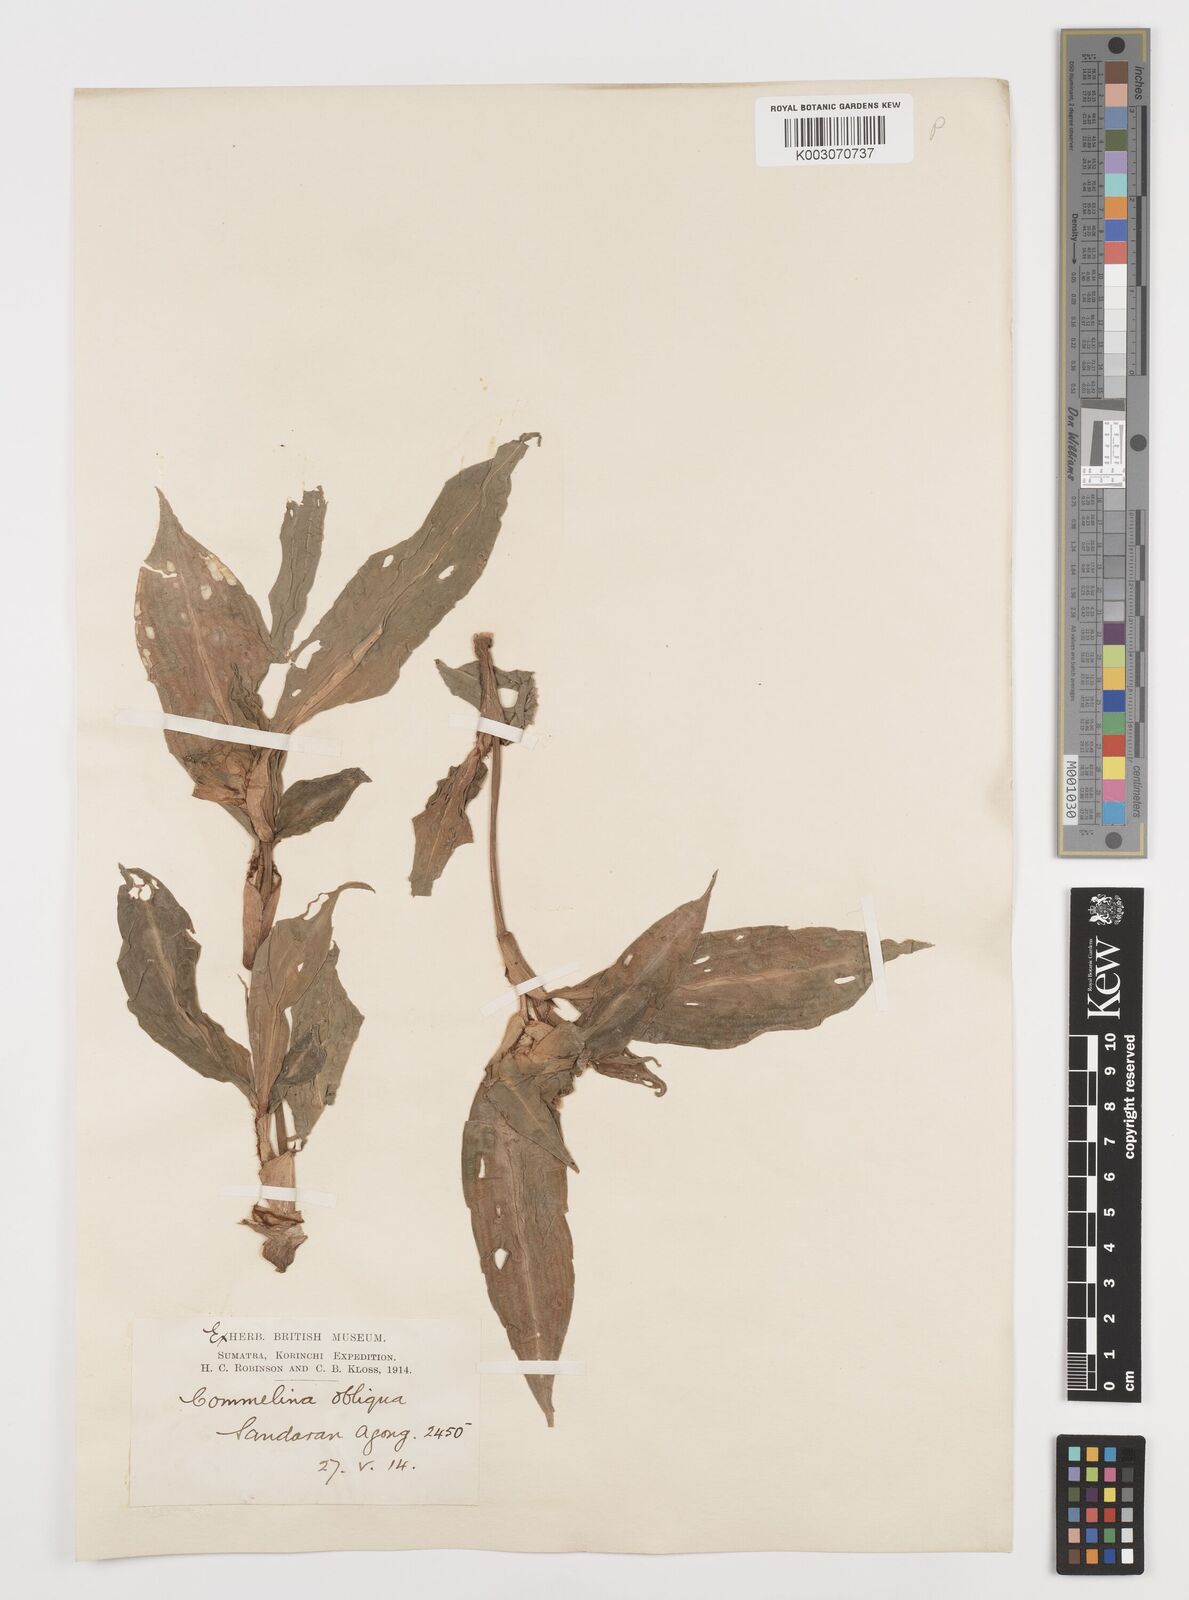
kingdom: Plantae
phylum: Tracheophyta
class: Liliopsida
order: Commelinales
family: Commelinaceae
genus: Commelina
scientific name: Commelina paludosa
